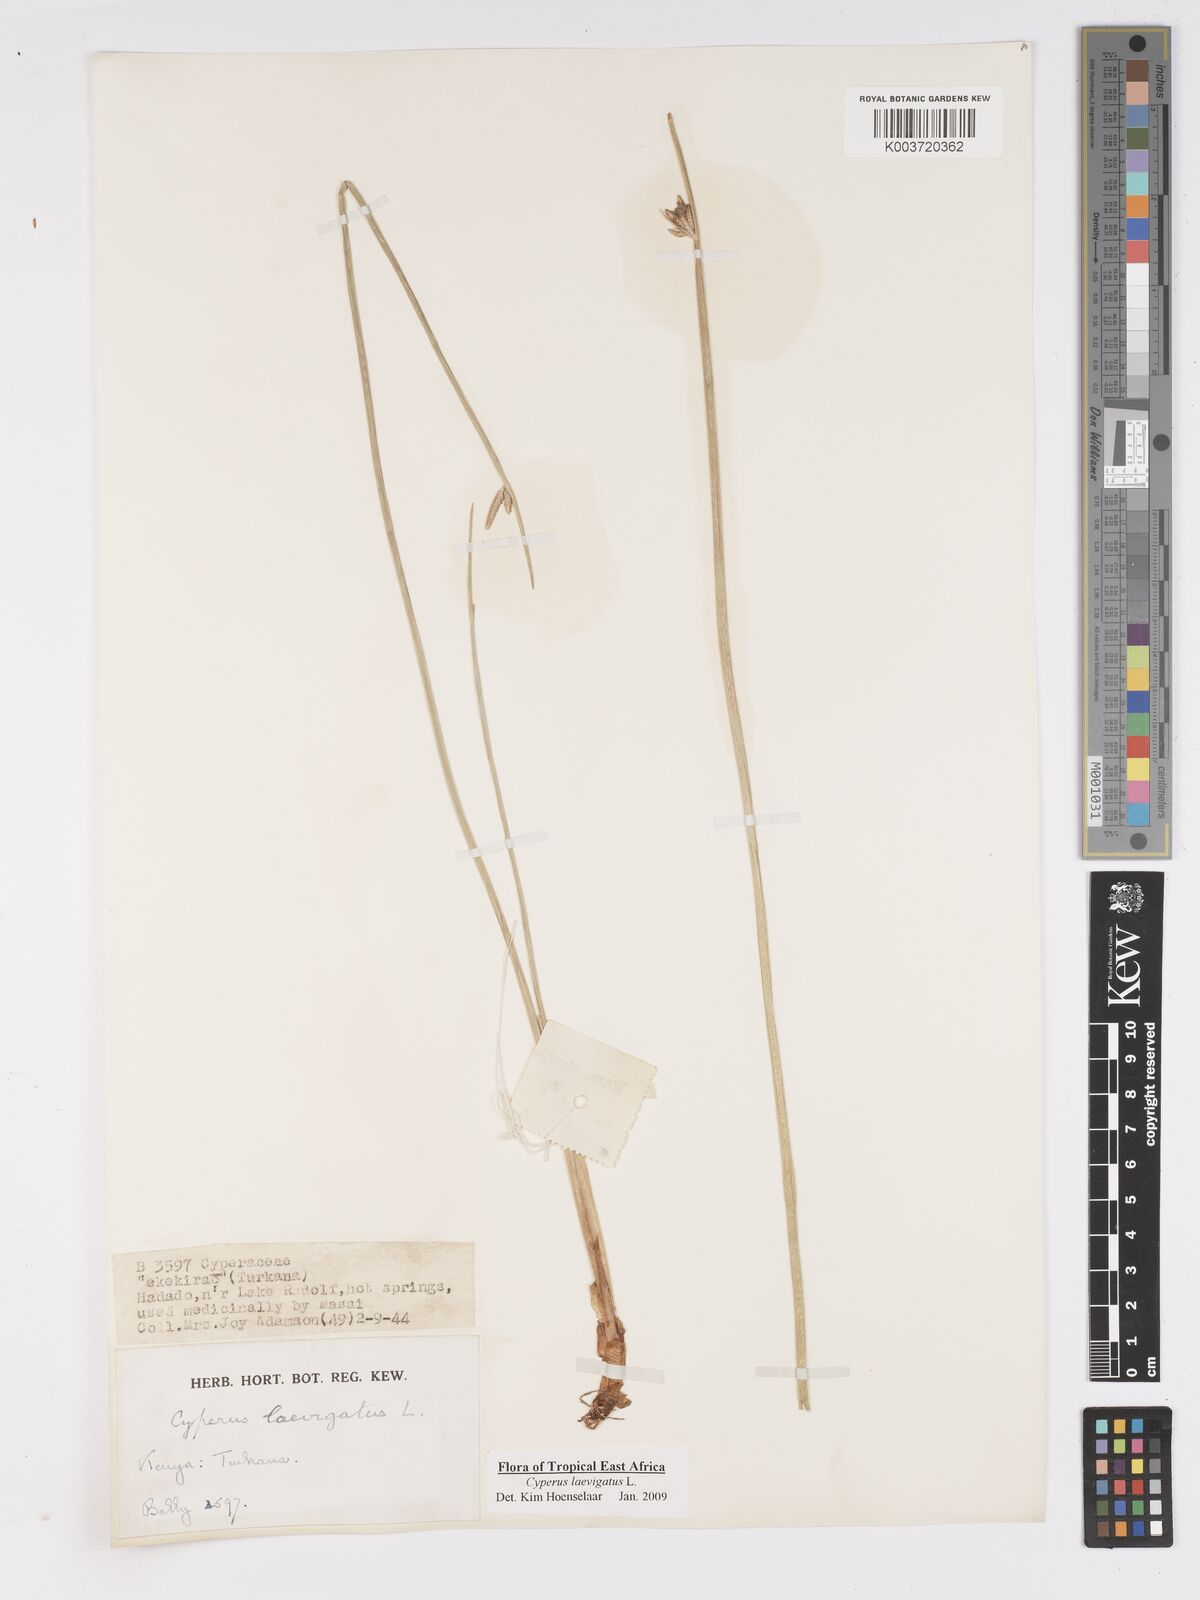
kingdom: Plantae
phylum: Tracheophyta
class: Liliopsida
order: Poales
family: Cyperaceae
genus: Cyperus
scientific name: Cyperus laevigatus
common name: Smooth flat sedge
